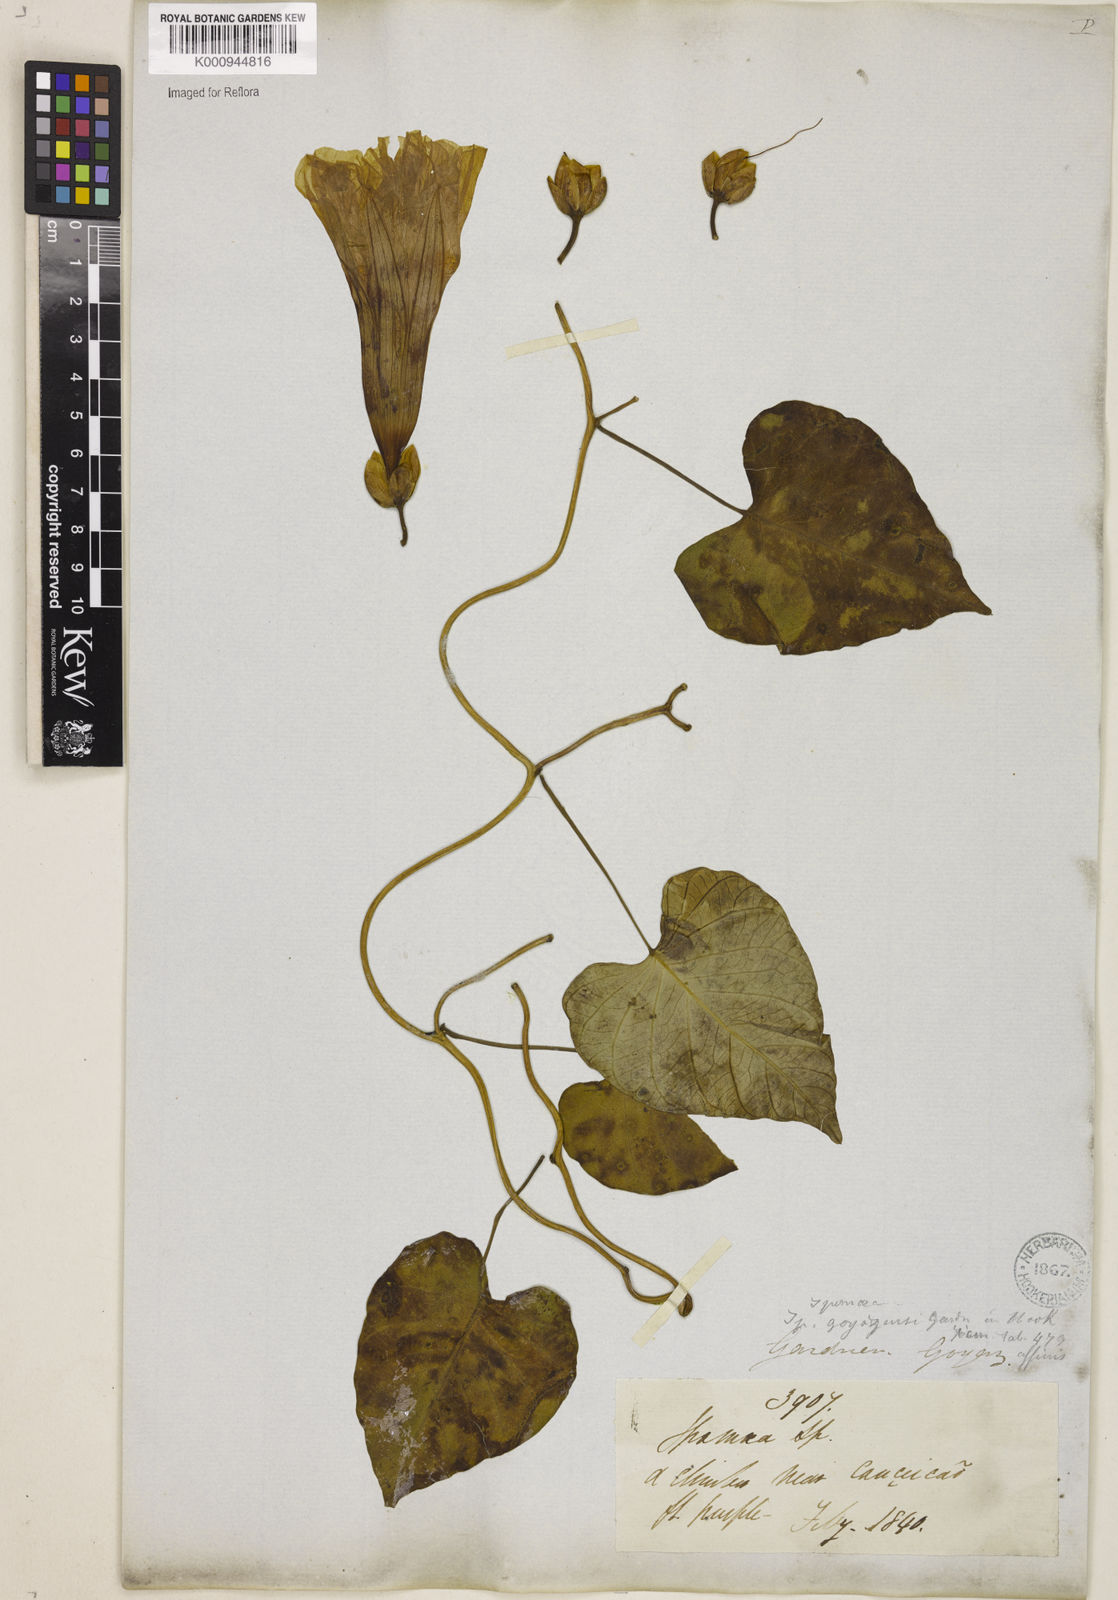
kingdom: Plantae
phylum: Tracheophyta
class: Magnoliopsida
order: Solanales
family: Convolvulaceae
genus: Ipomoea
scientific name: Ipomoea goyazensis
